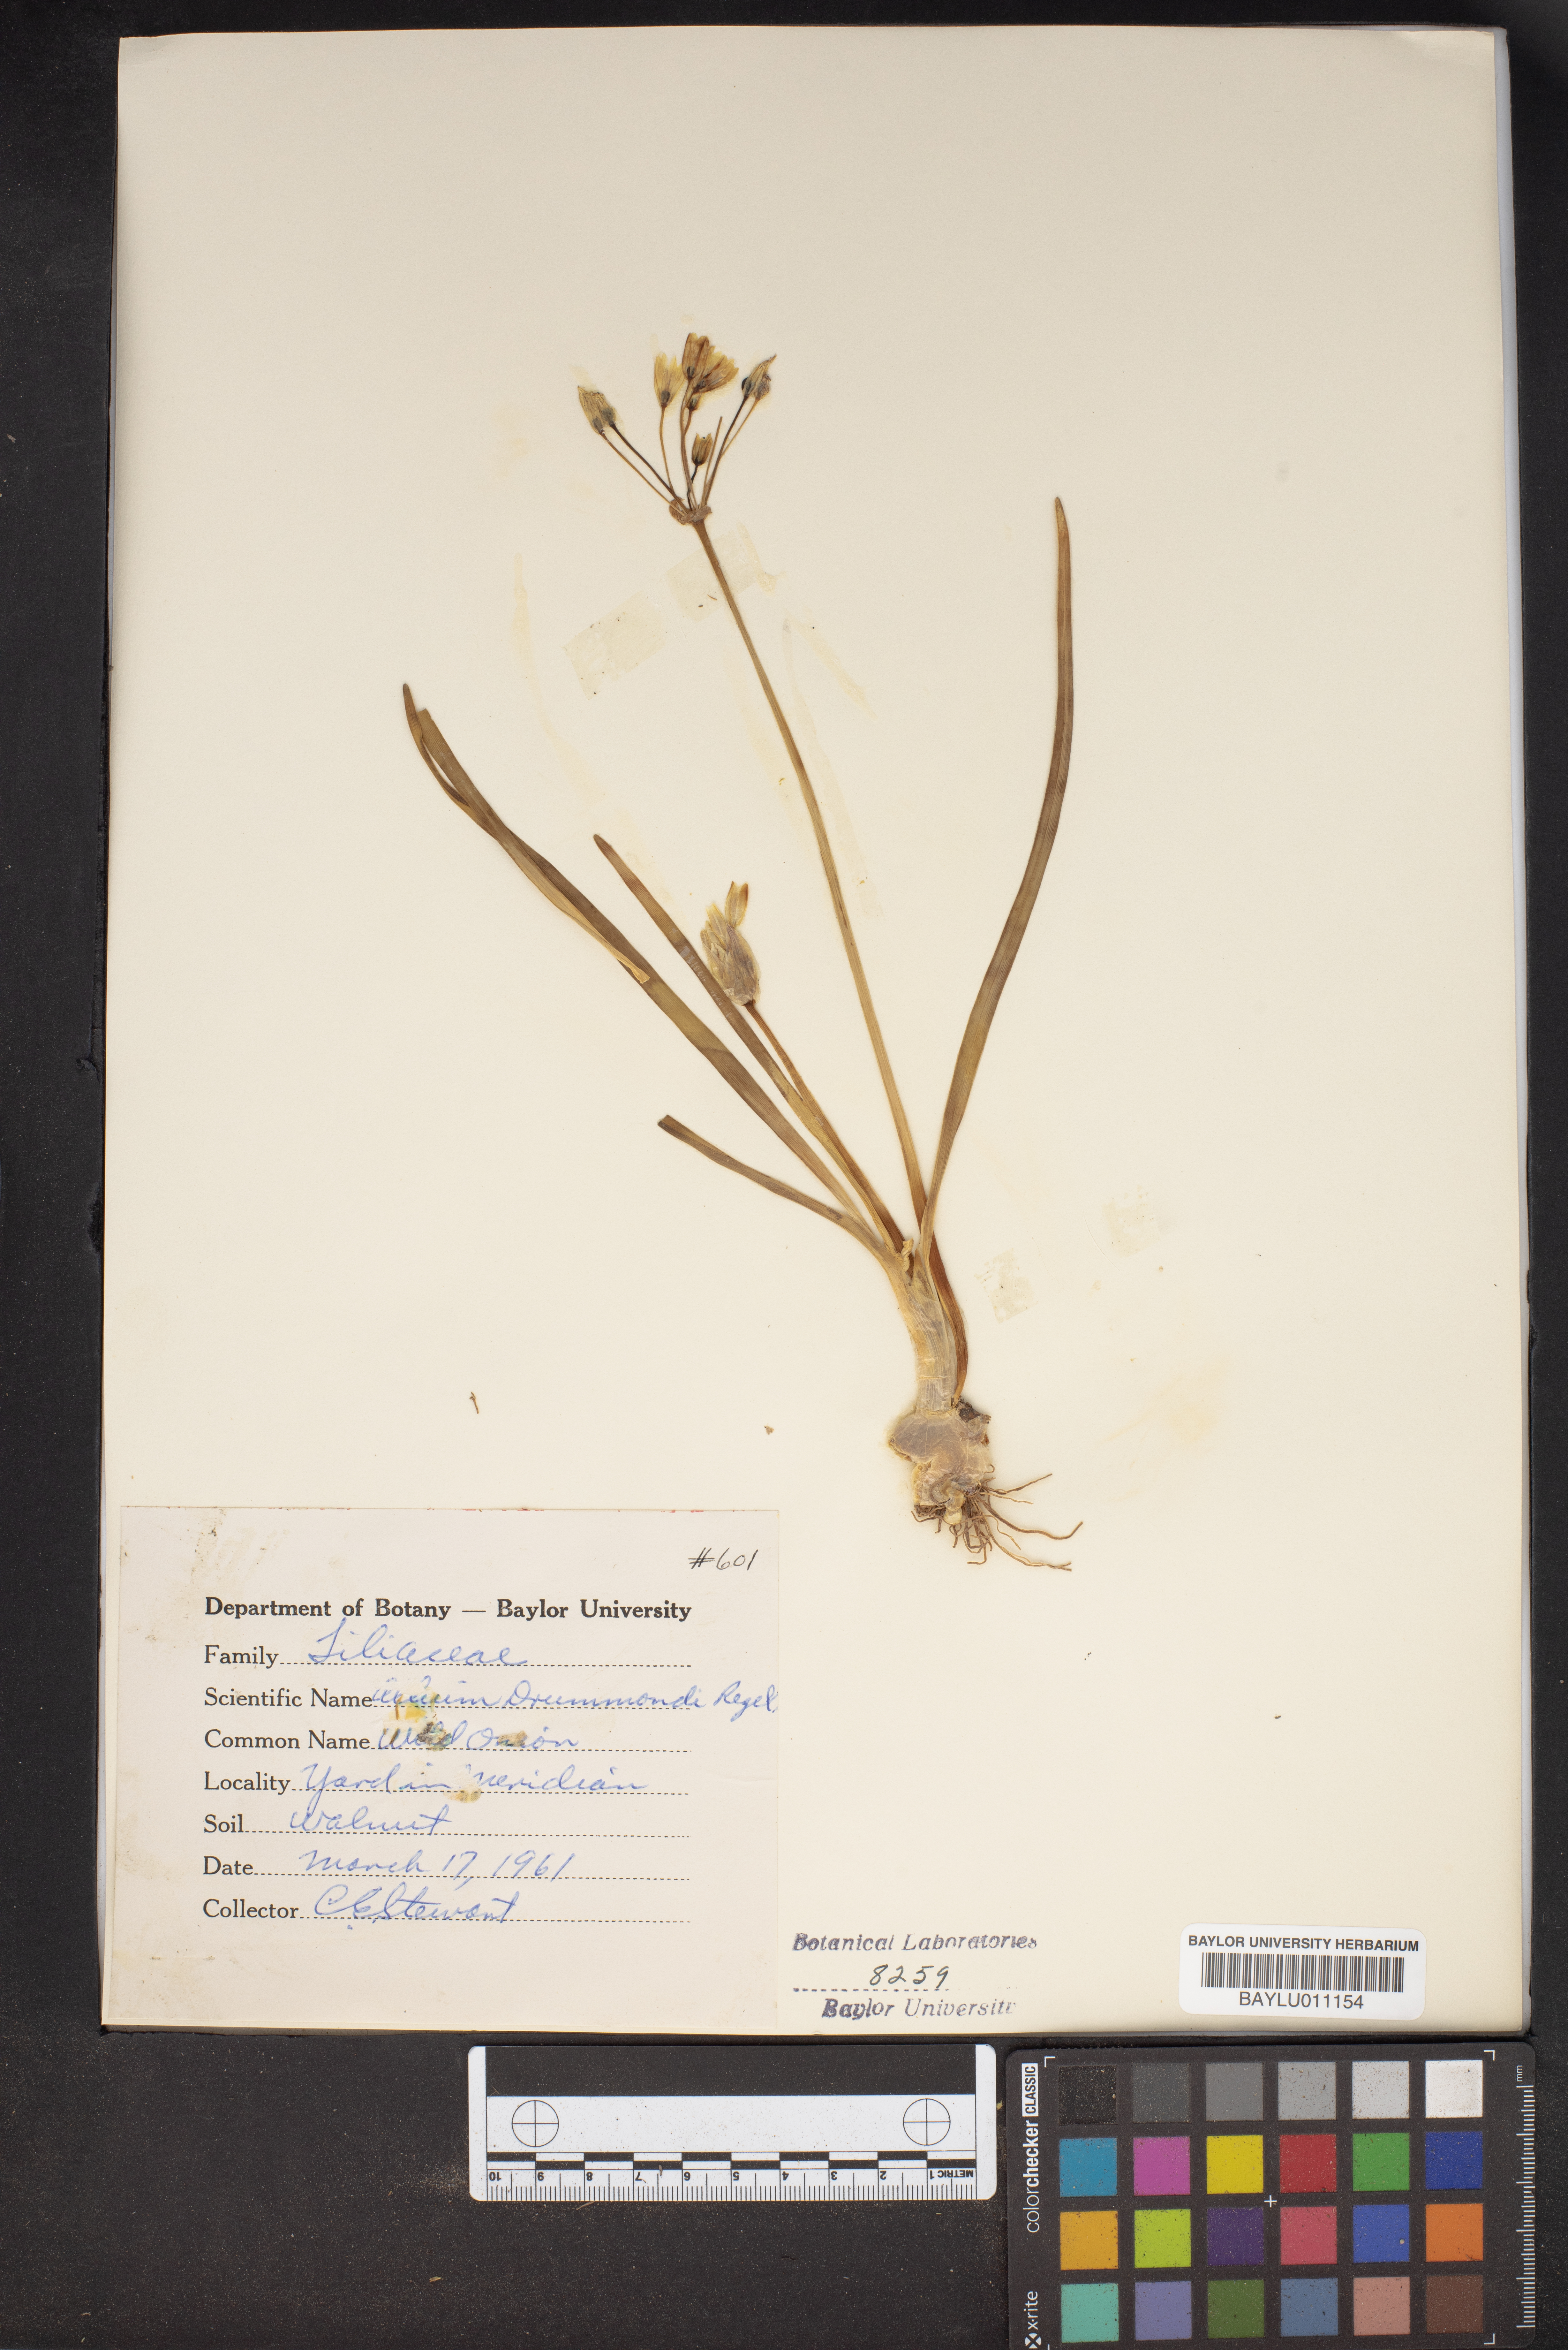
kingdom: Plantae
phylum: Tracheophyta
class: Liliopsida
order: Asparagales
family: Amaryllidaceae
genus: Allium
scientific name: Allium drummondii
